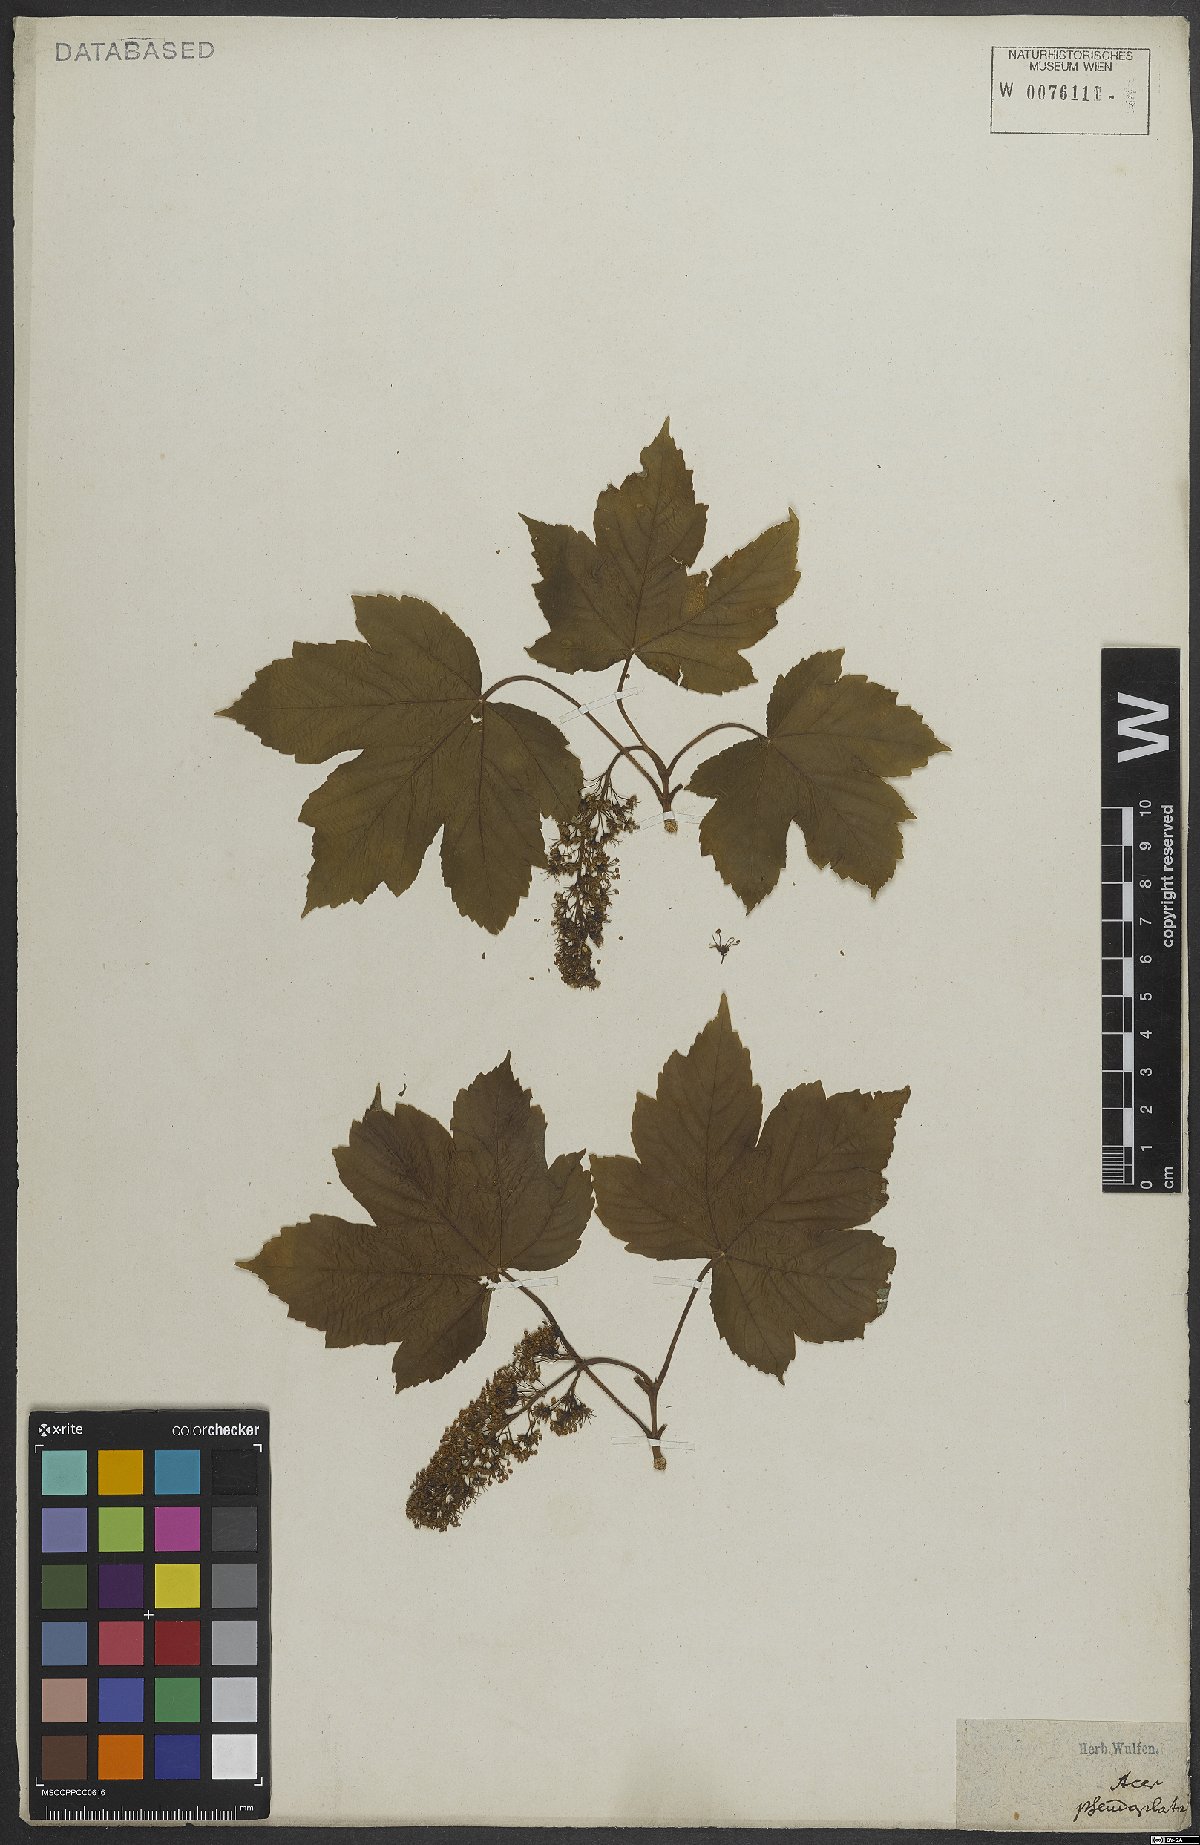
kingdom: Plantae
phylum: Tracheophyta
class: Magnoliopsida
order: Sapindales
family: Sapindaceae
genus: Acer
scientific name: Acer pseudoplatanus
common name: Sycamore
